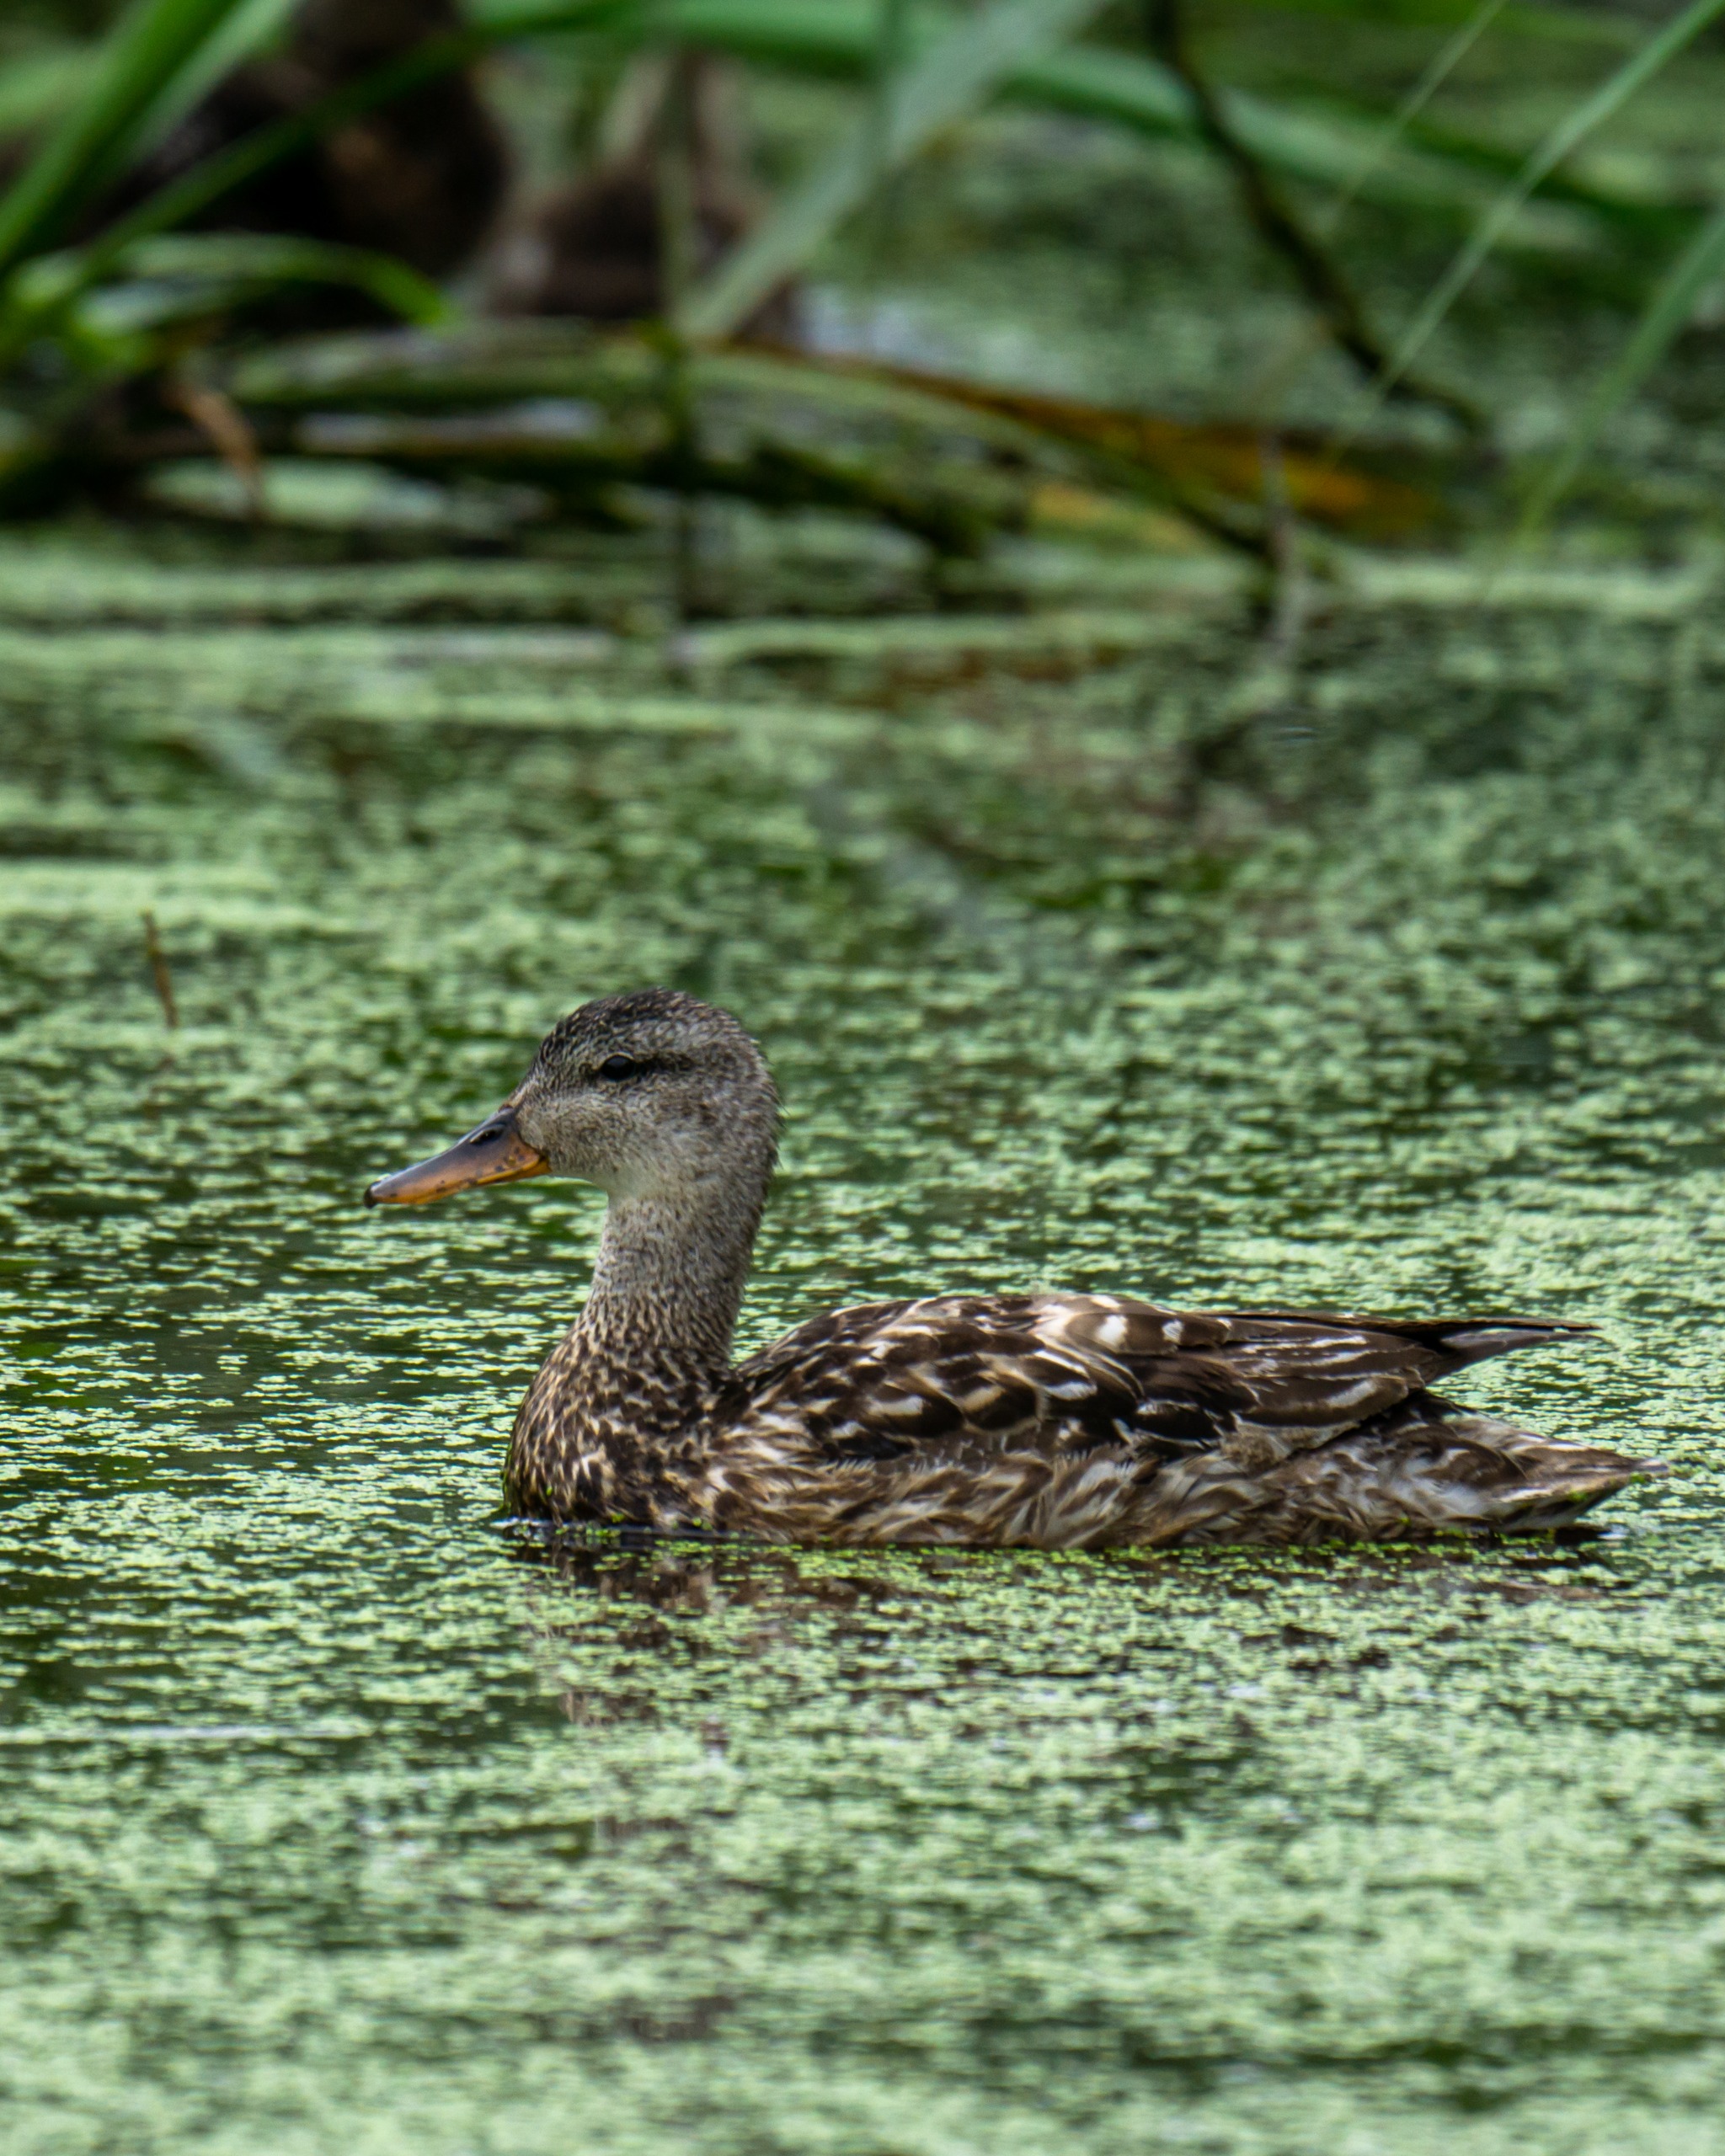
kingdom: Animalia
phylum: Chordata
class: Aves
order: Anseriformes
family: Anatidae
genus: Mareca
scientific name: Mareca strepera
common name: Knarand
